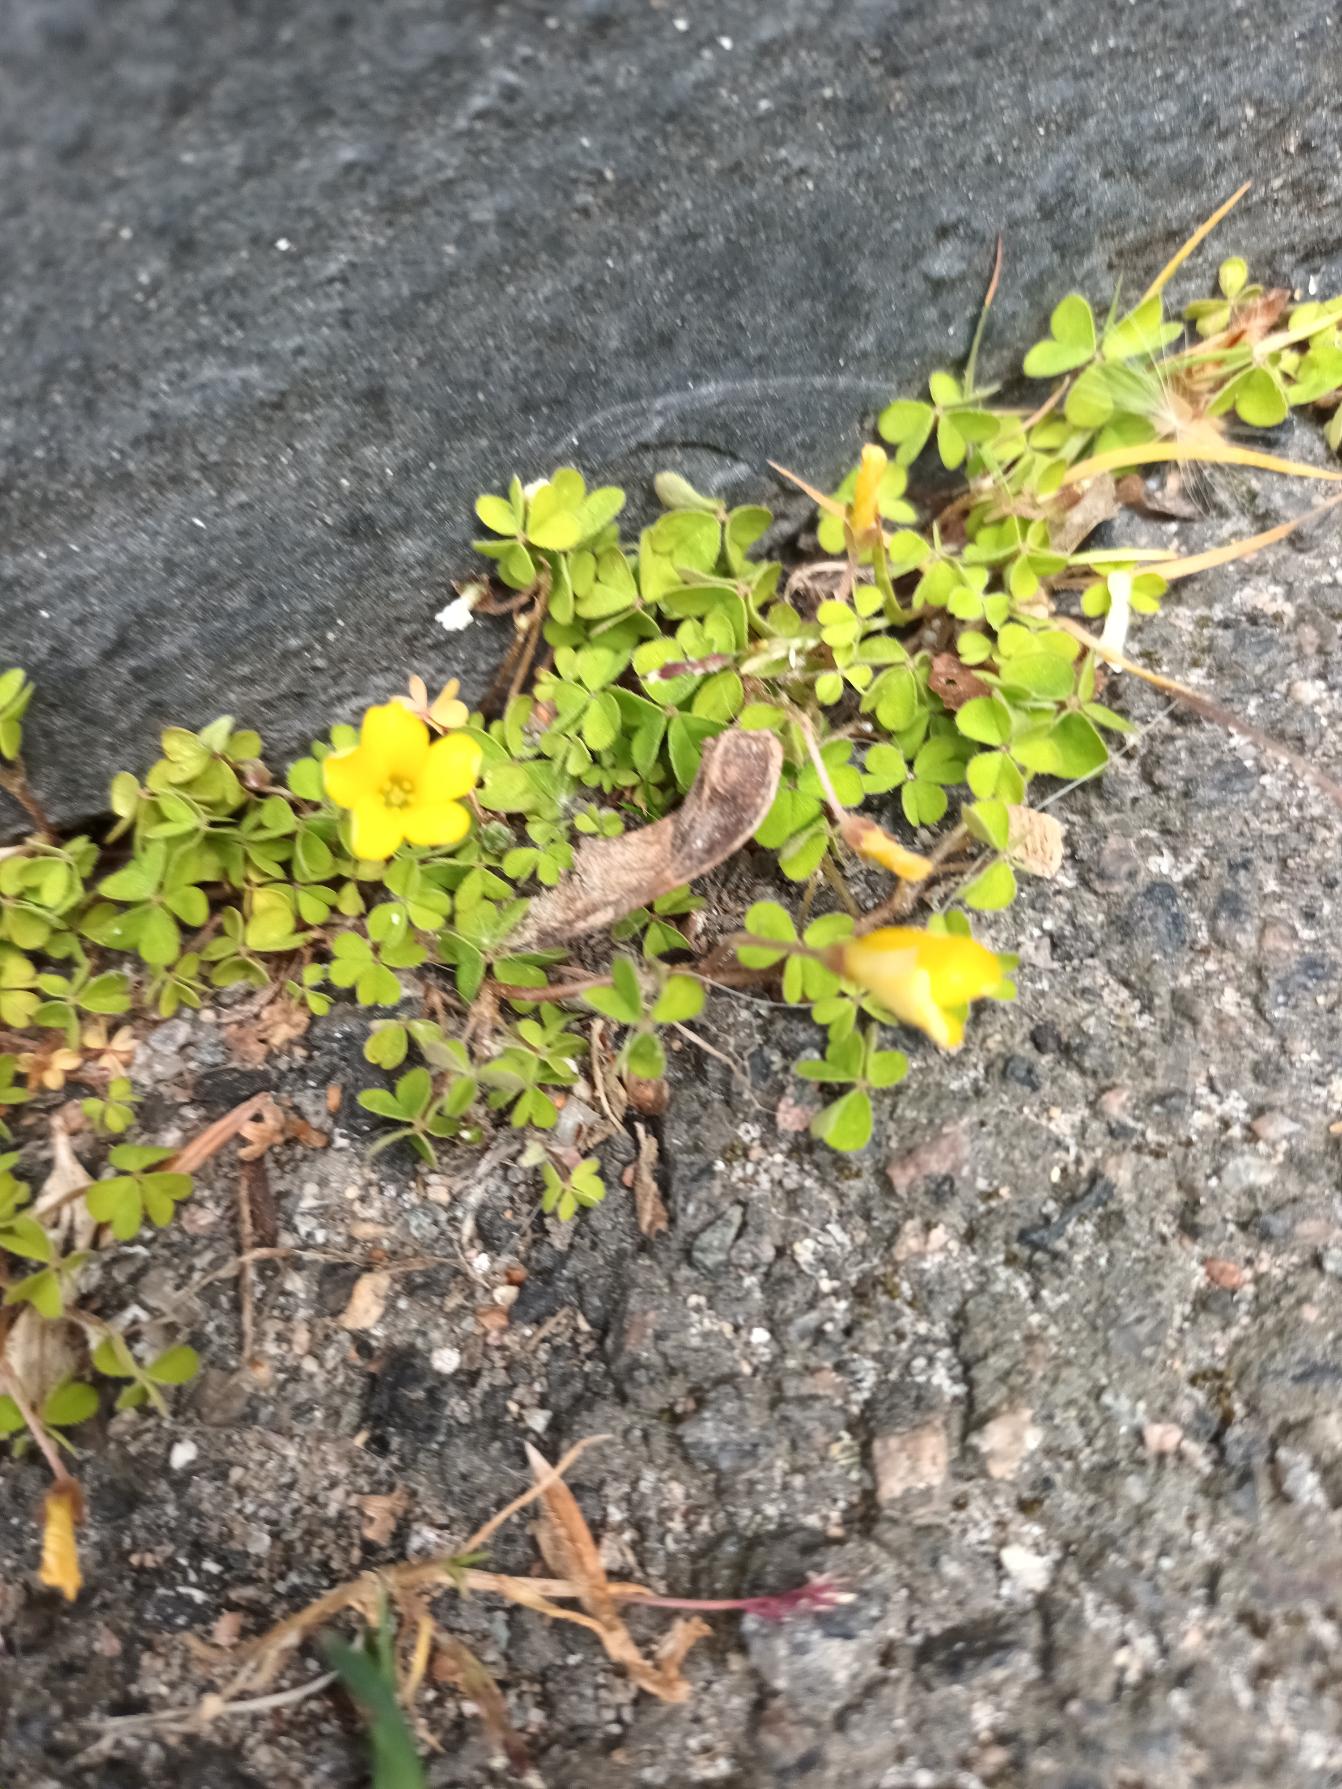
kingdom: Plantae
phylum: Tracheophyta
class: Magnoliopsida
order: Oxalidales
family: Oxalidaceae
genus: Oxalis
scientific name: Oxalis exilis
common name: Spæd surkløver
